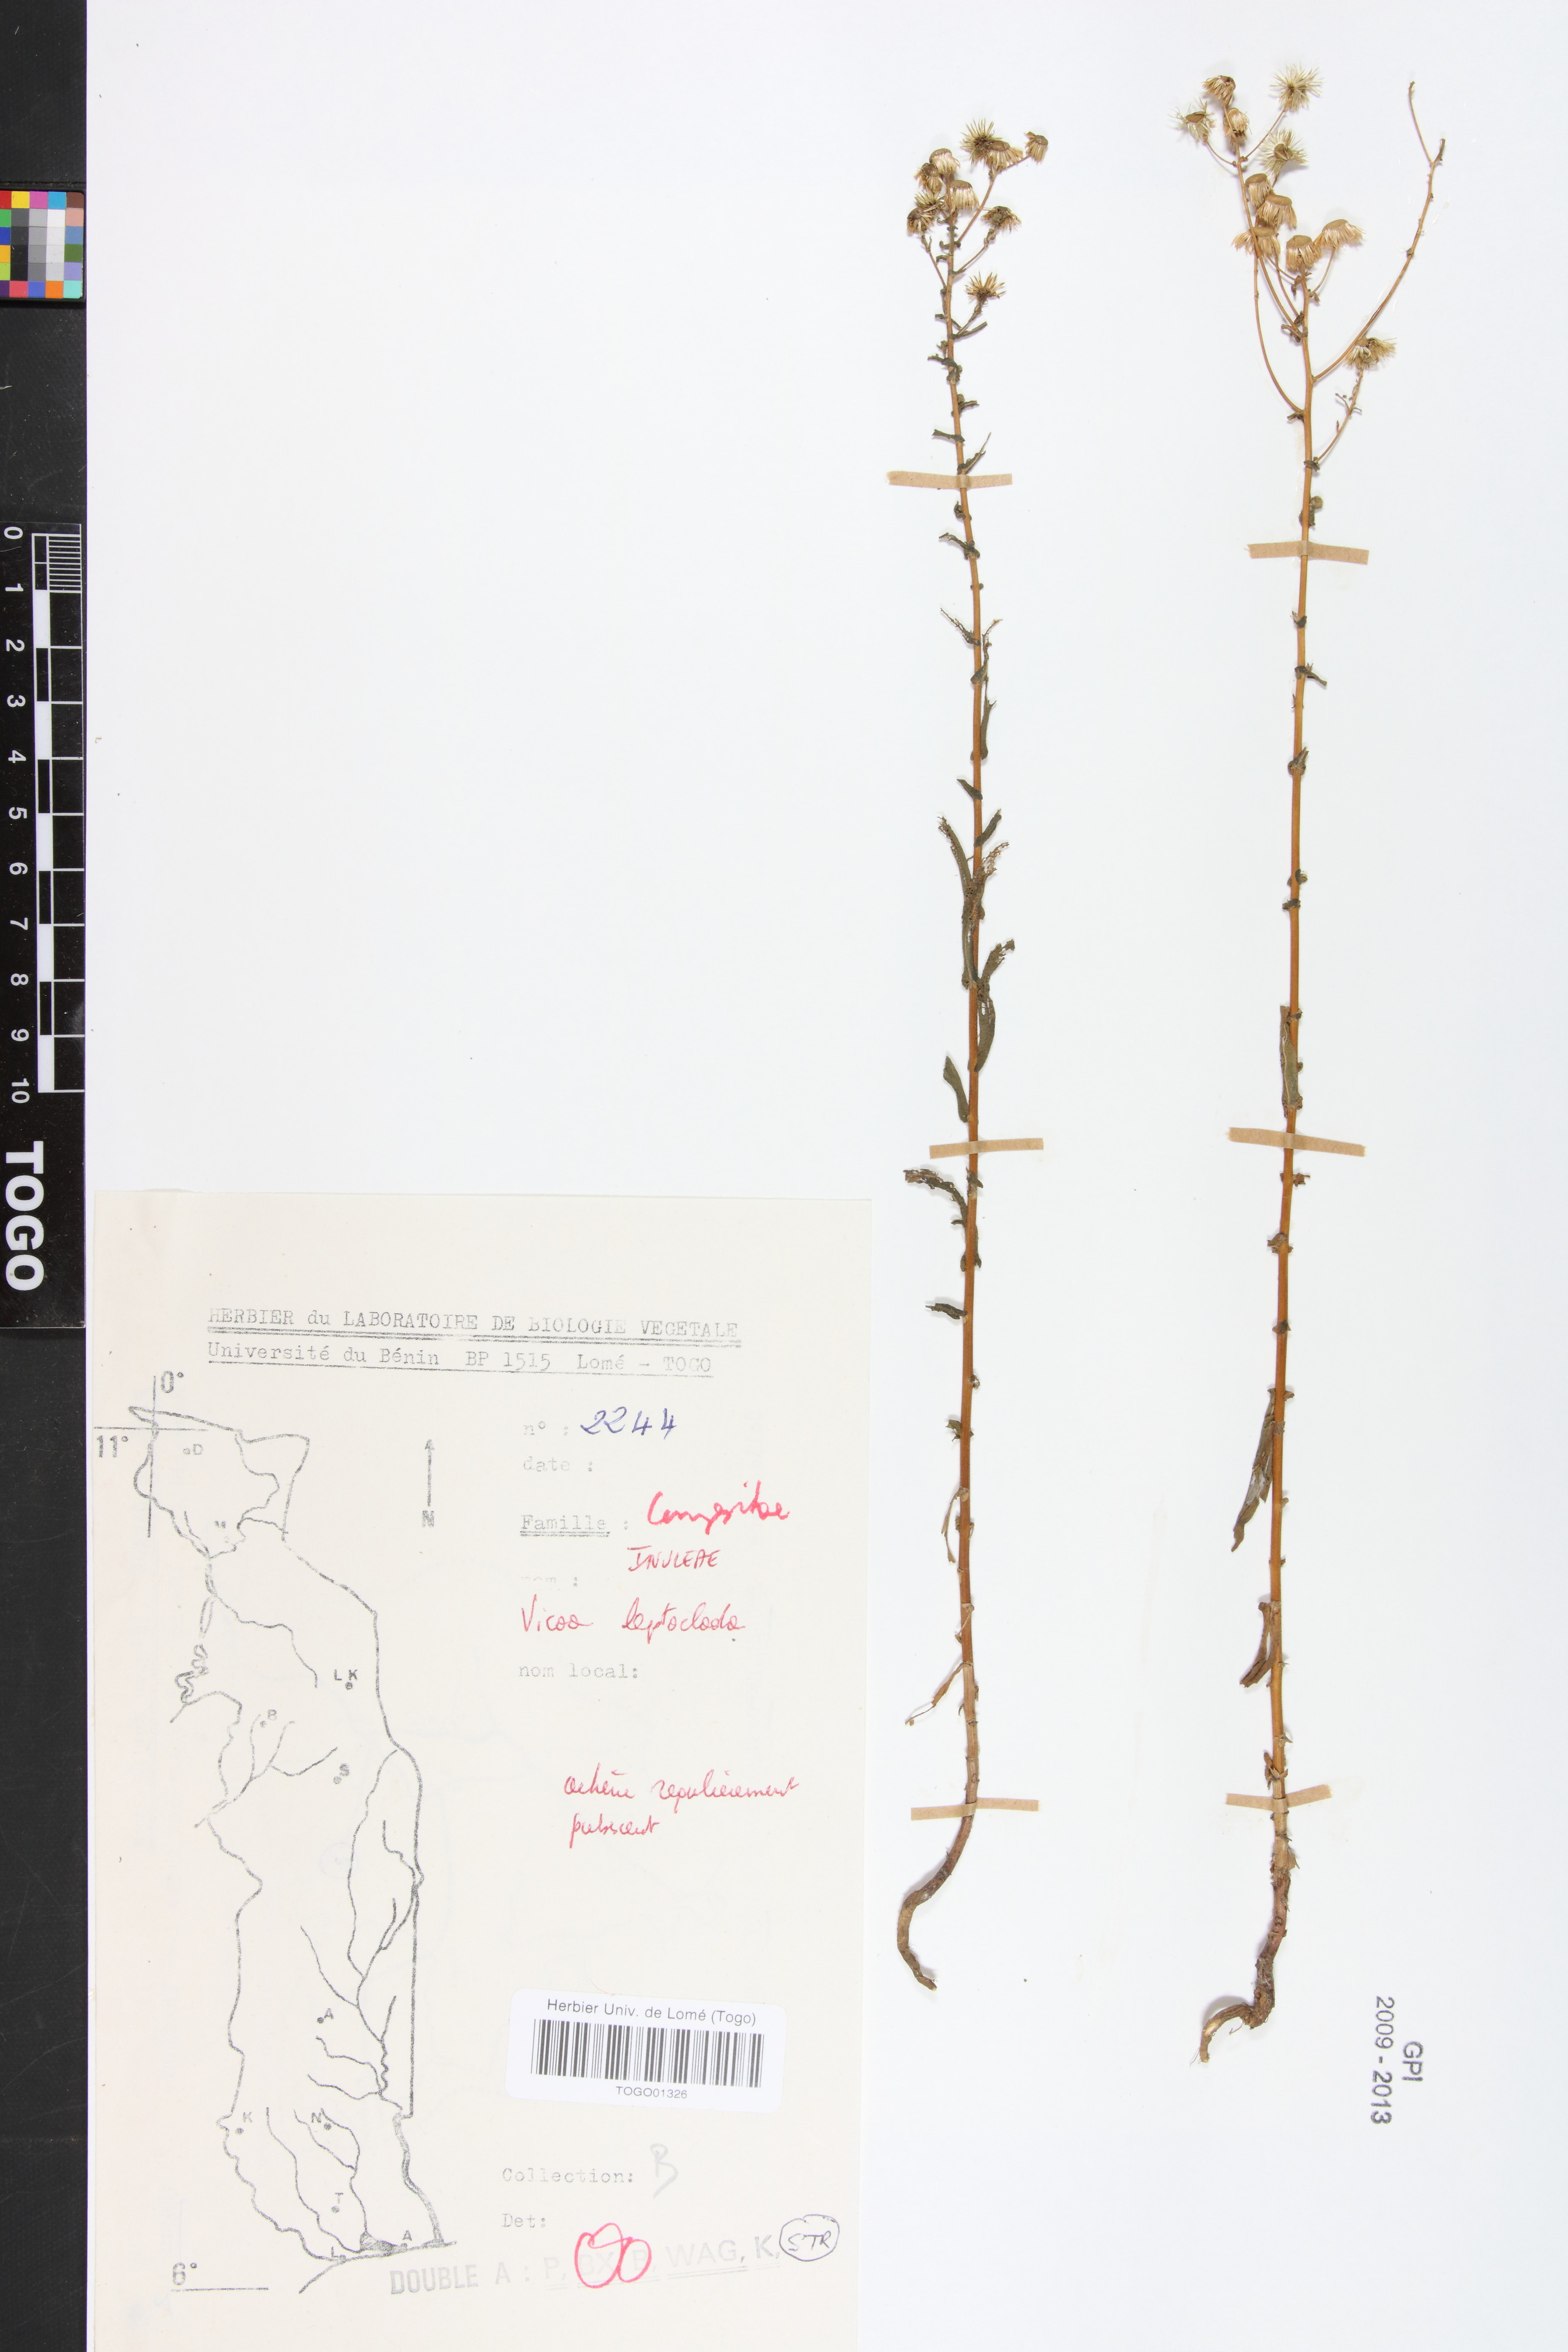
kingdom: Plantae
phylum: Tracheophyta
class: Magnoliopsida
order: Asterales
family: Asteraceae
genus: Vicoa
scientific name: Vicoa indica
